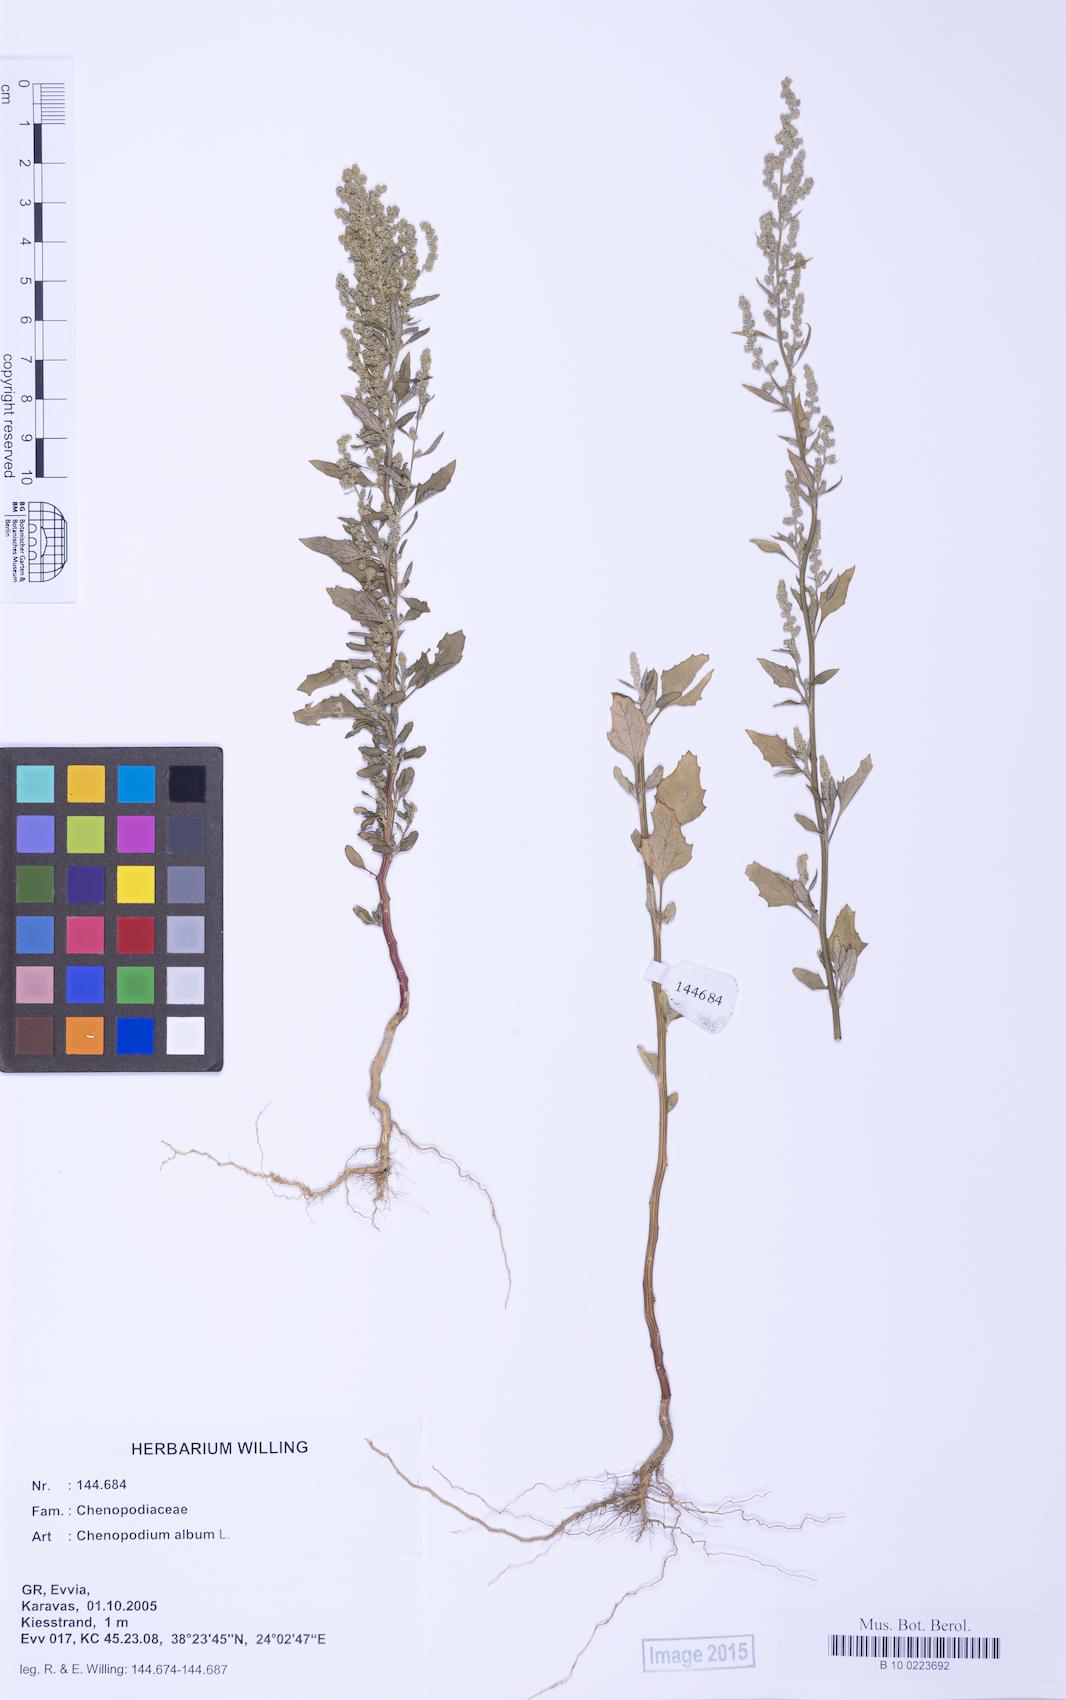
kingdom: Plantae
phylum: Tracheophyta
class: Magnoliopsida
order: Caryophyllales
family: Amaranthaceae
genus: Chenopodium
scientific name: Chenopodium album
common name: Fat-hen
